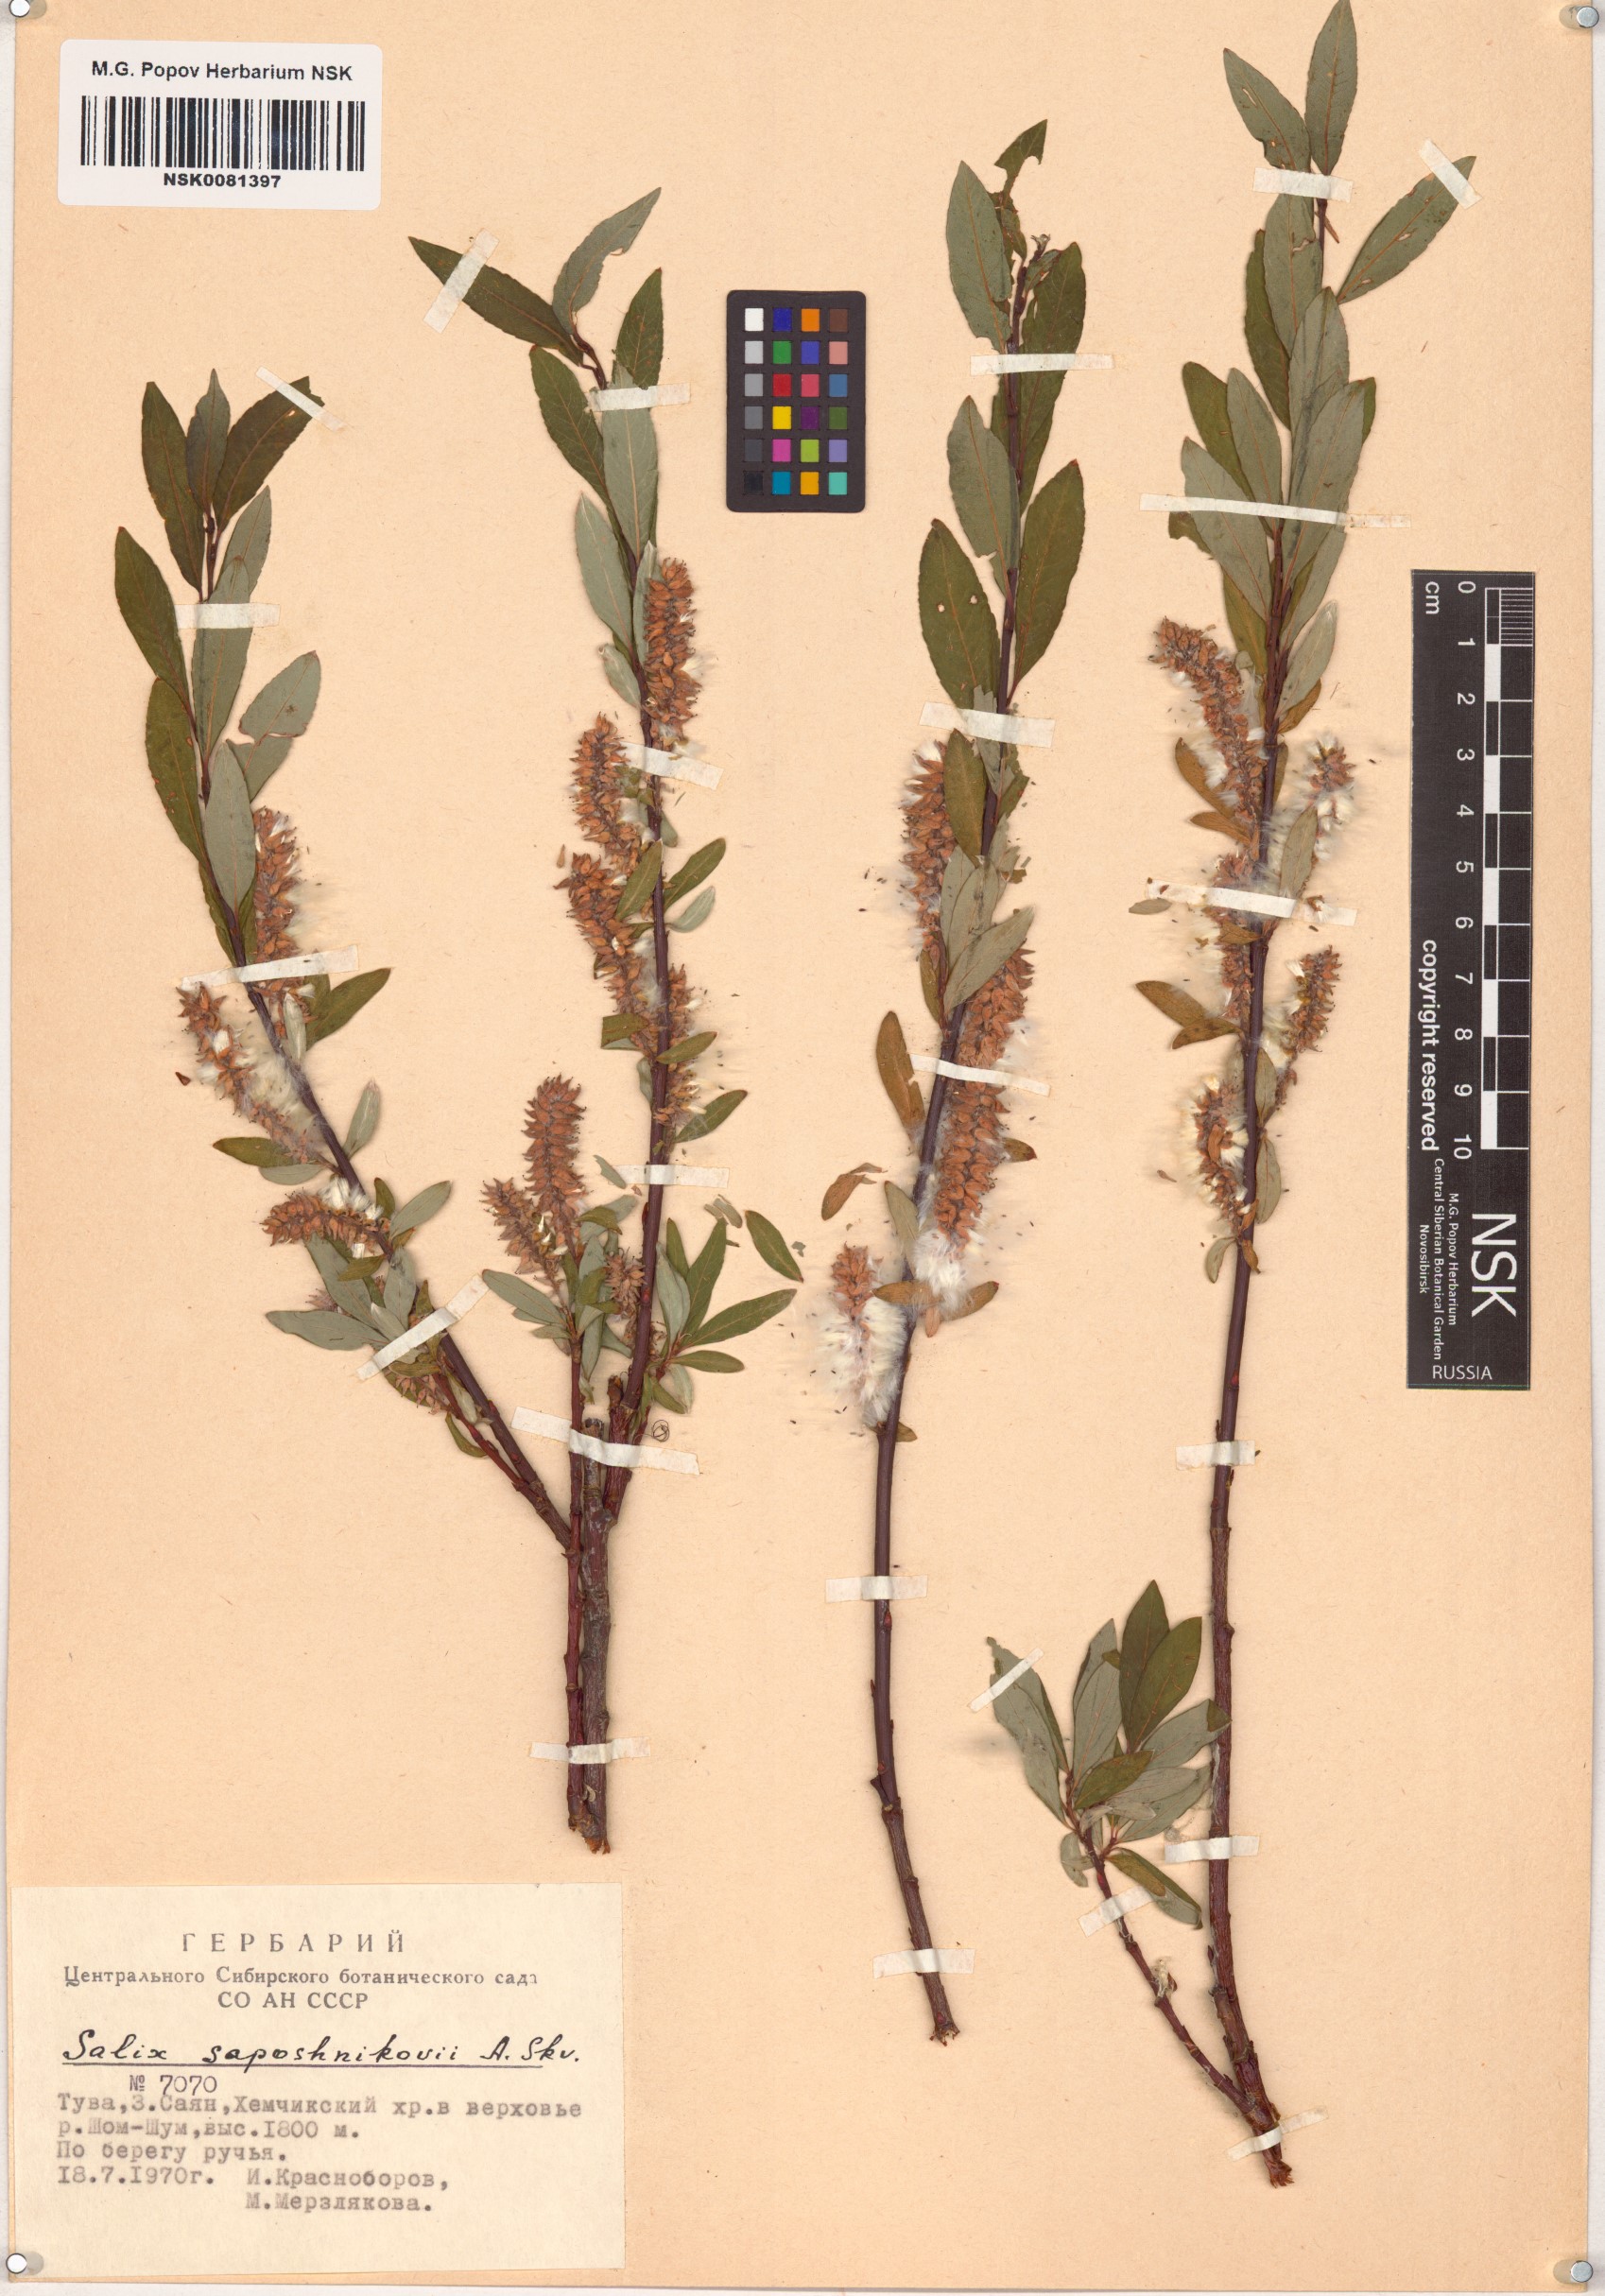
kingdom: Plantae
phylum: Tracheophyta
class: Magnoliopsida
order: Malpighiales
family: Salicaceae
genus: Salix
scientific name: Salix saposhnikovii
